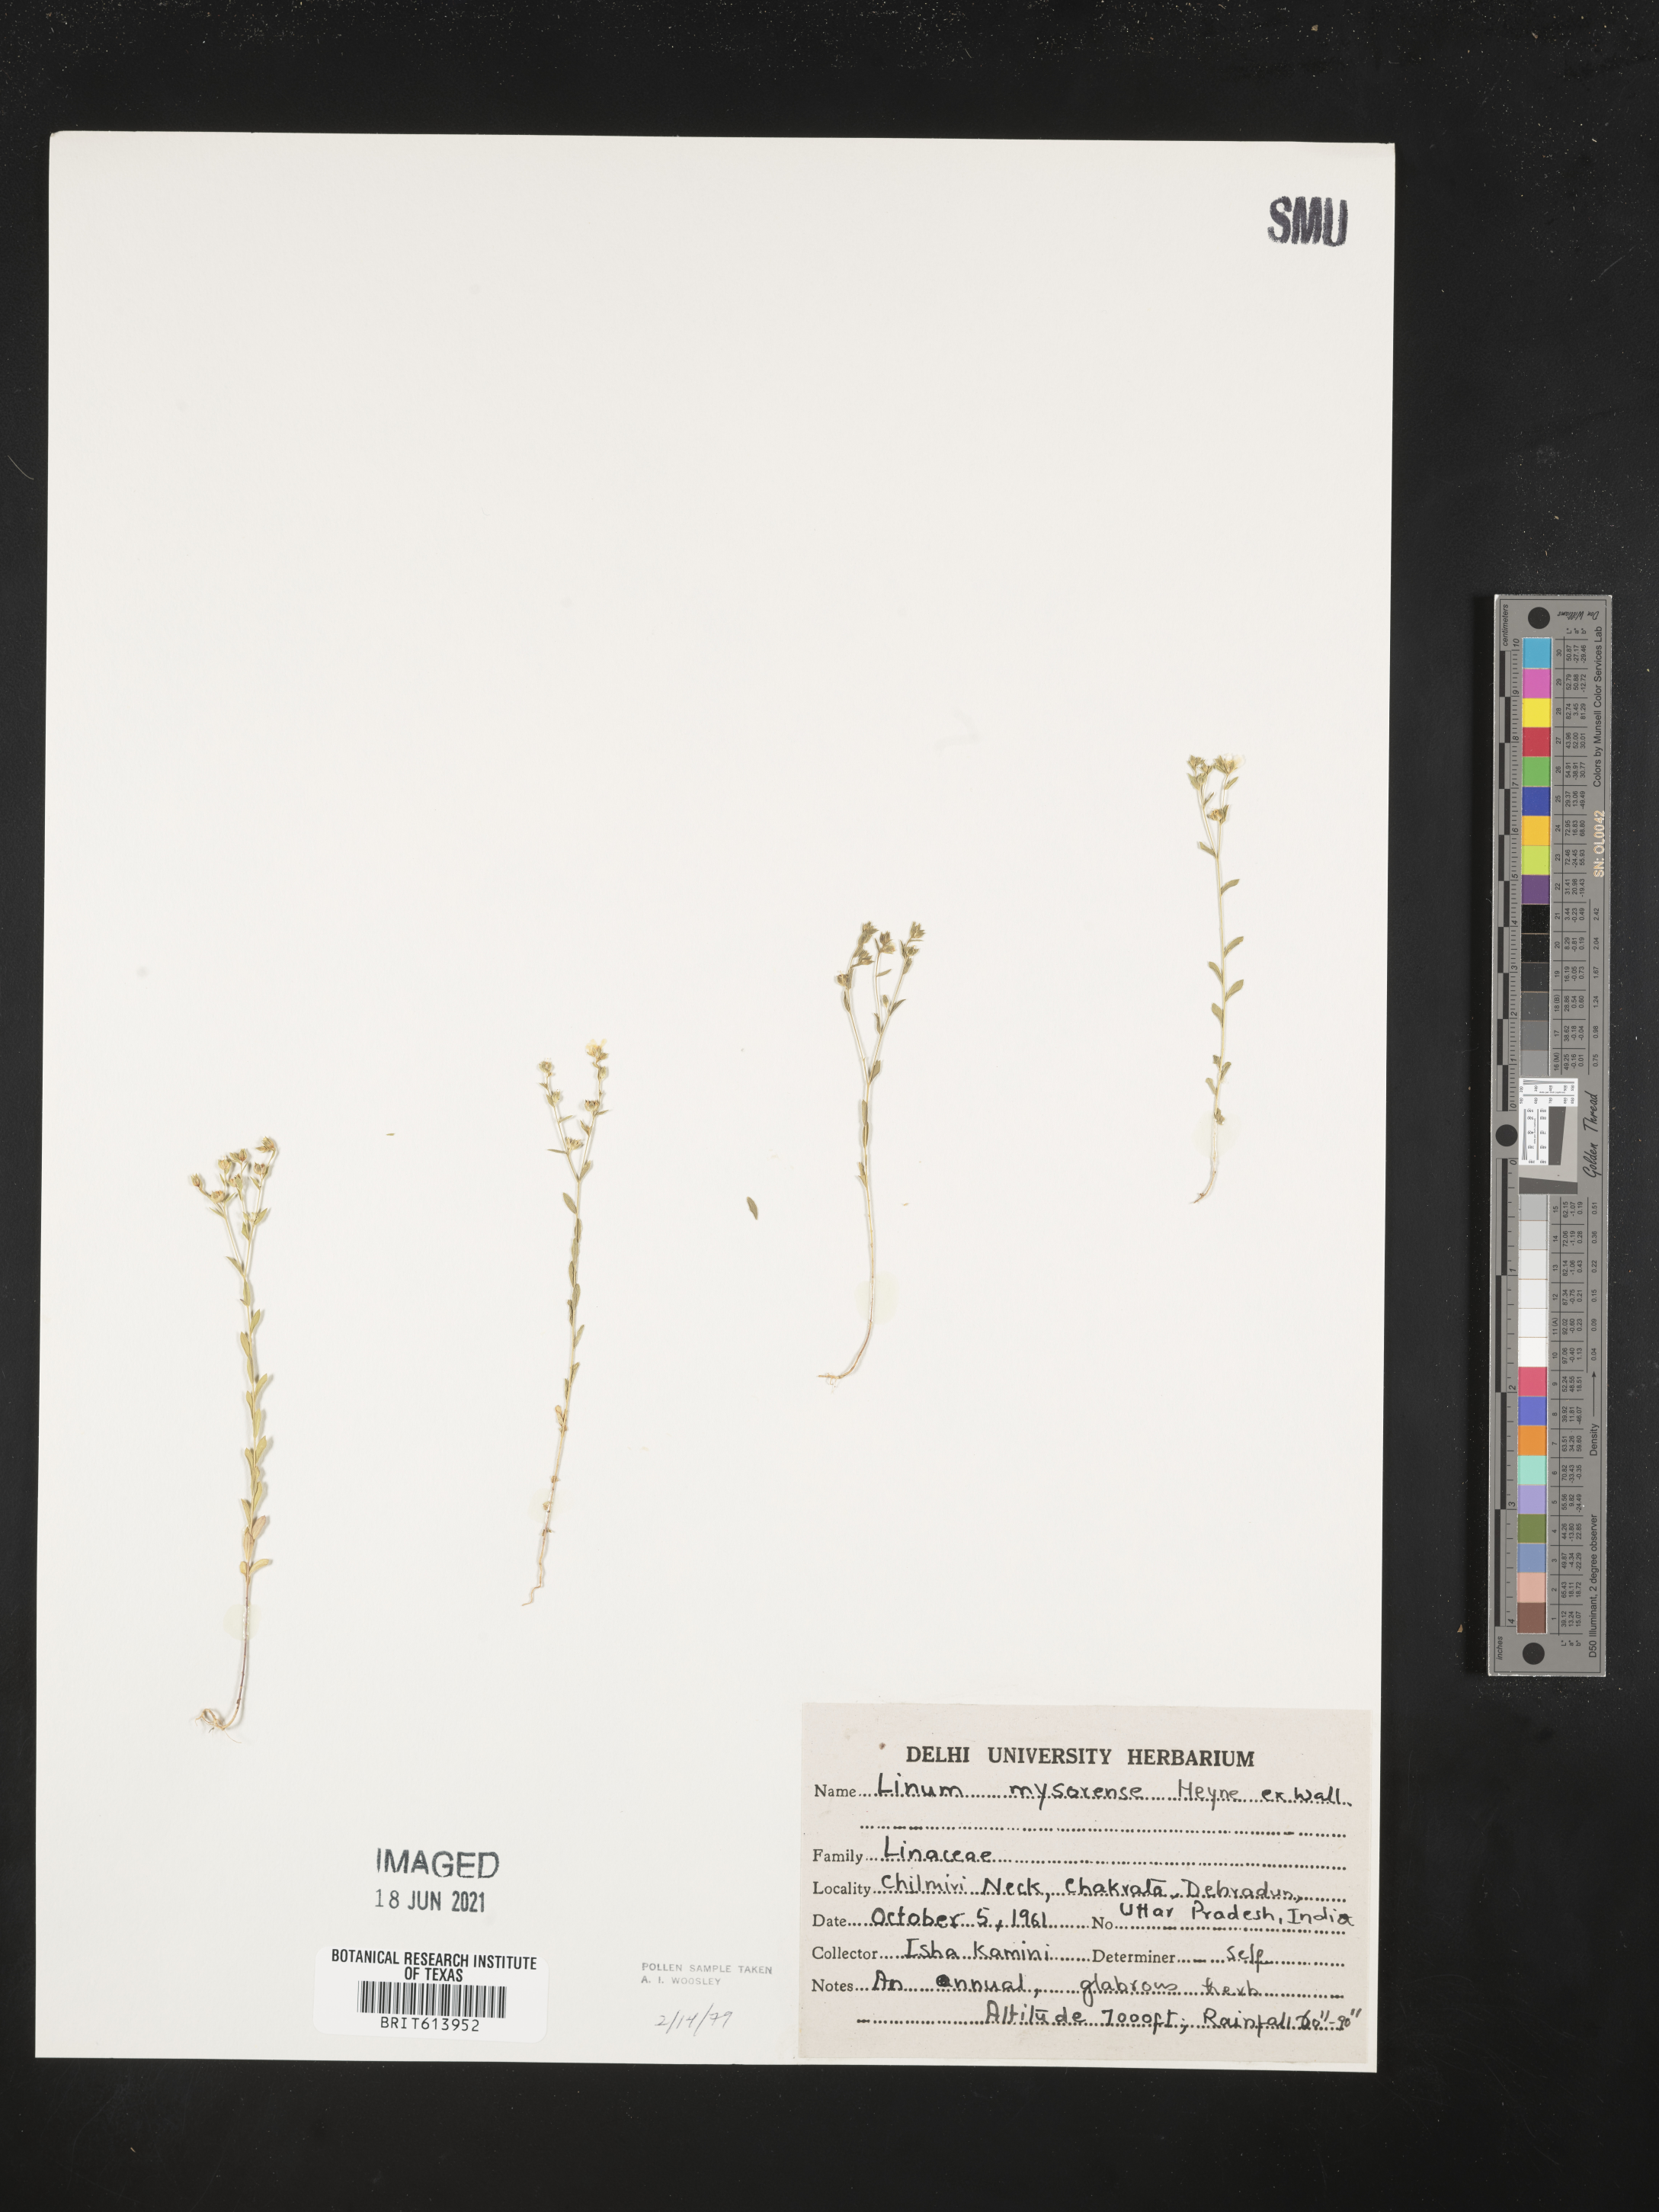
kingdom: Plantae
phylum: Tracheophyta
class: Magnoliopsida
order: Malpighiales
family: Linaceae
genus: Linum
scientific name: Linum mysorense
